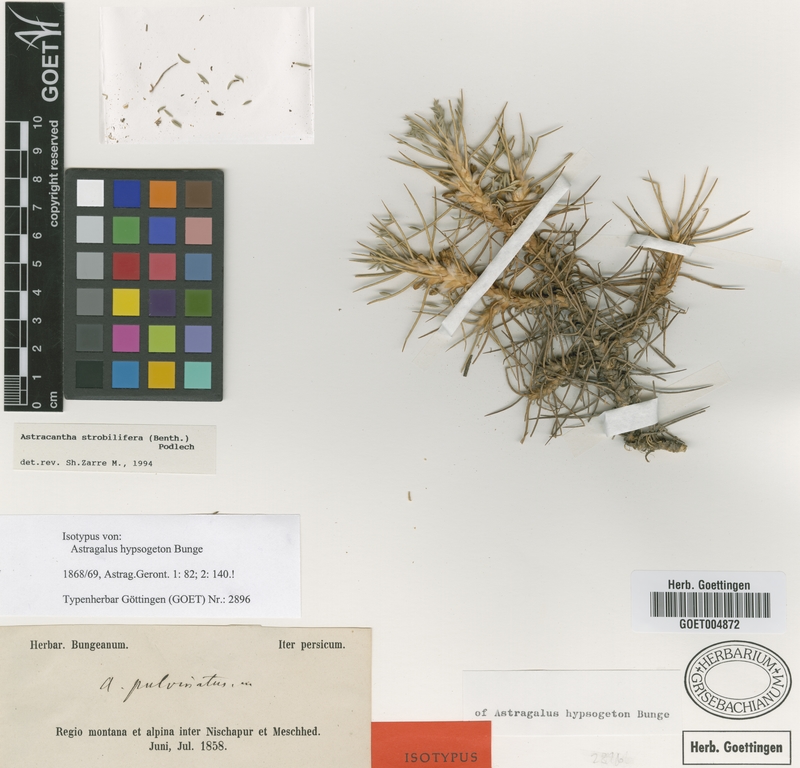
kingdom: Plantae
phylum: Tracheophyta
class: Magnoliopsida
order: Fabales
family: Fabaceae
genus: Astragalus
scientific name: Astragalus strobiliferus
